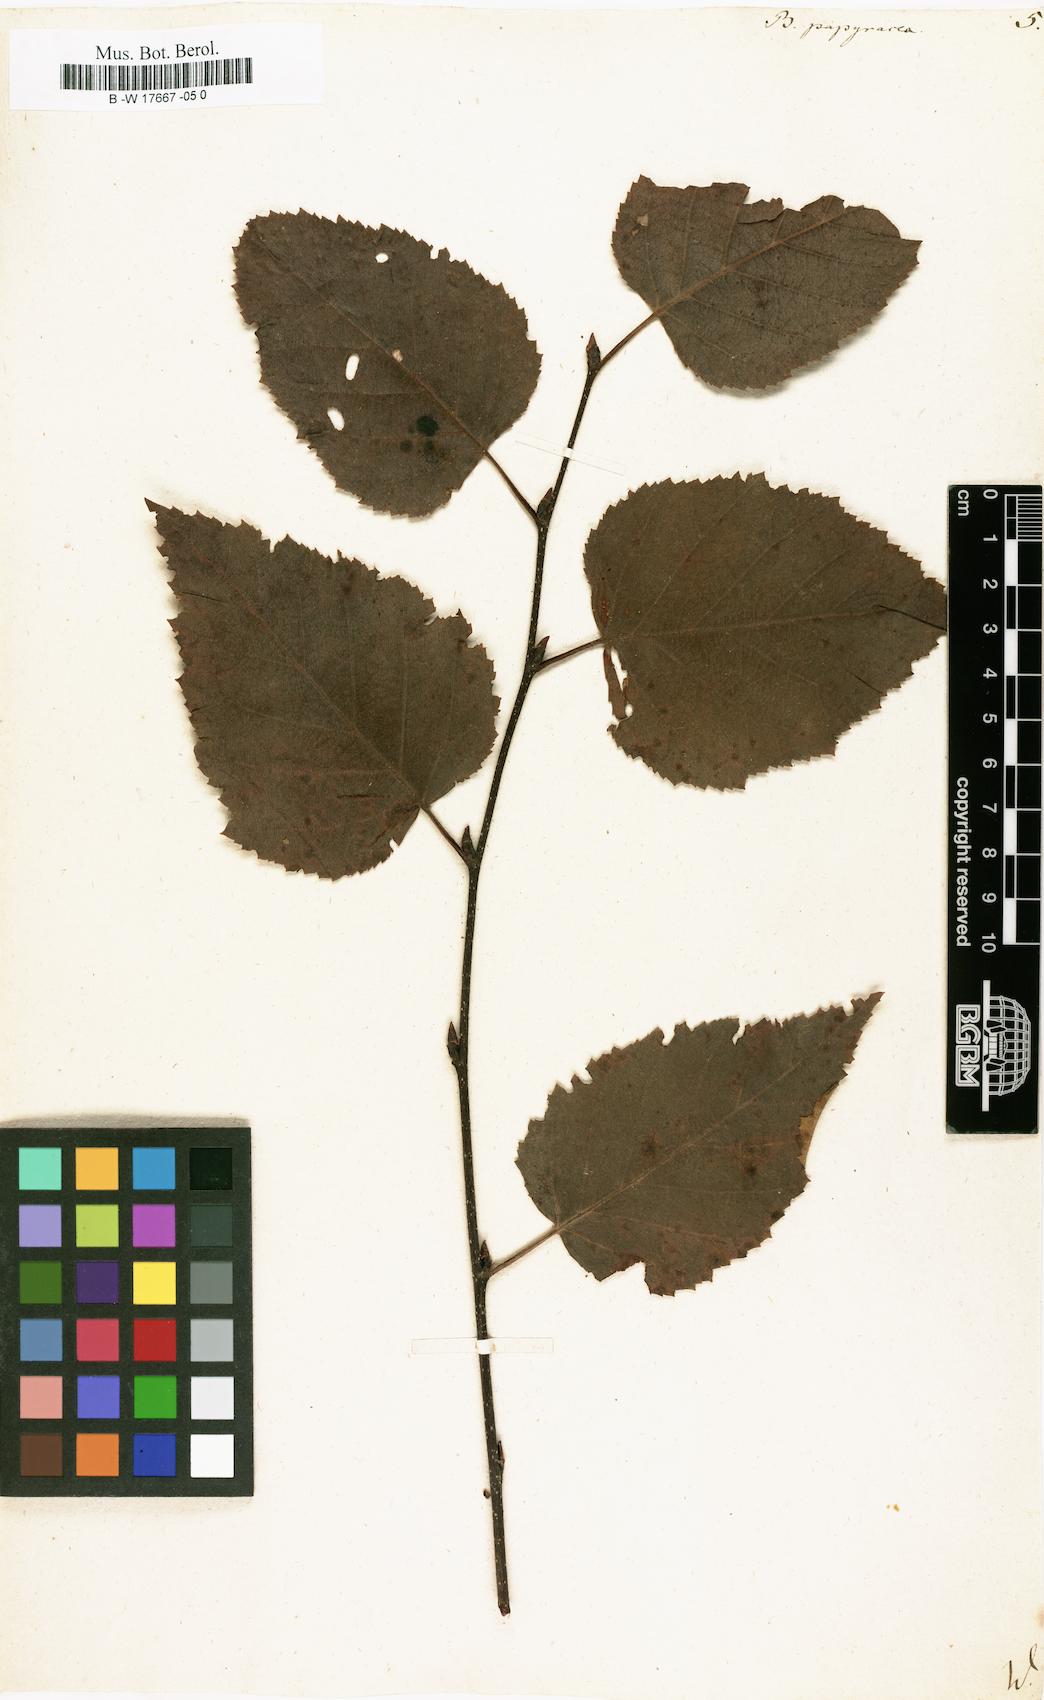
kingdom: Plantae
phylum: Tracheophyta
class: Magnoliopsida
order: Fagales
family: Betulaceae
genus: Betula
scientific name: Betula papyrifera
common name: Paper birch
